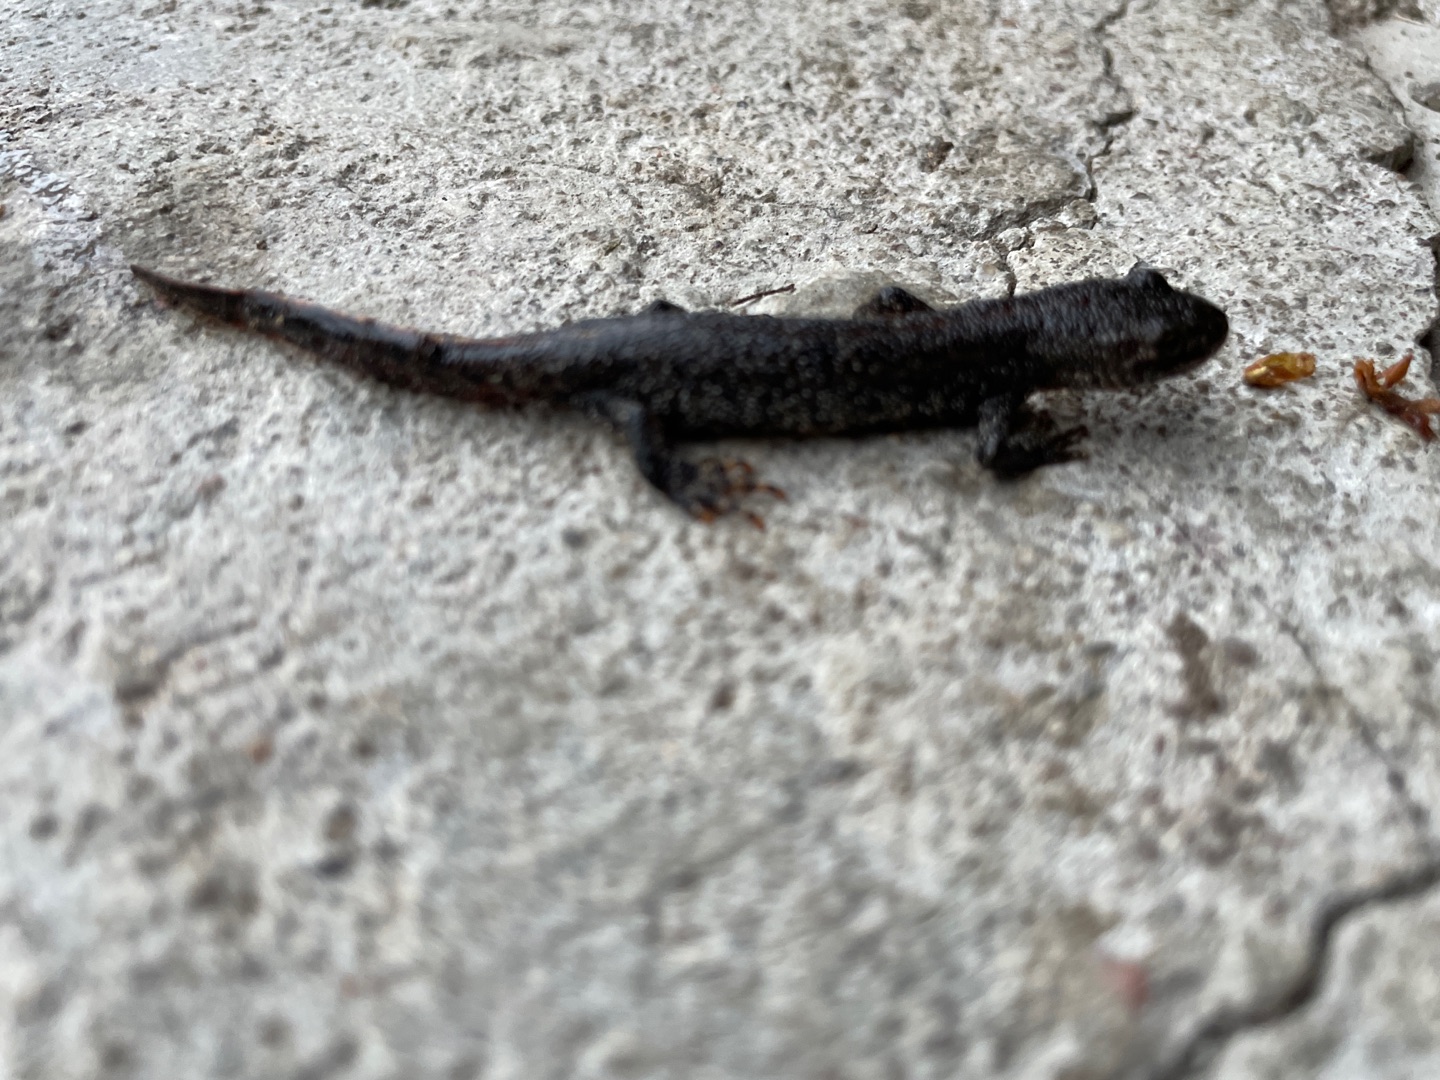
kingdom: Animalia
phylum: Chordata
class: Amphibia
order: Caudata
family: Salamandridae
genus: Triturus
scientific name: Triturus cristatus
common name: Stor vandsalamander
